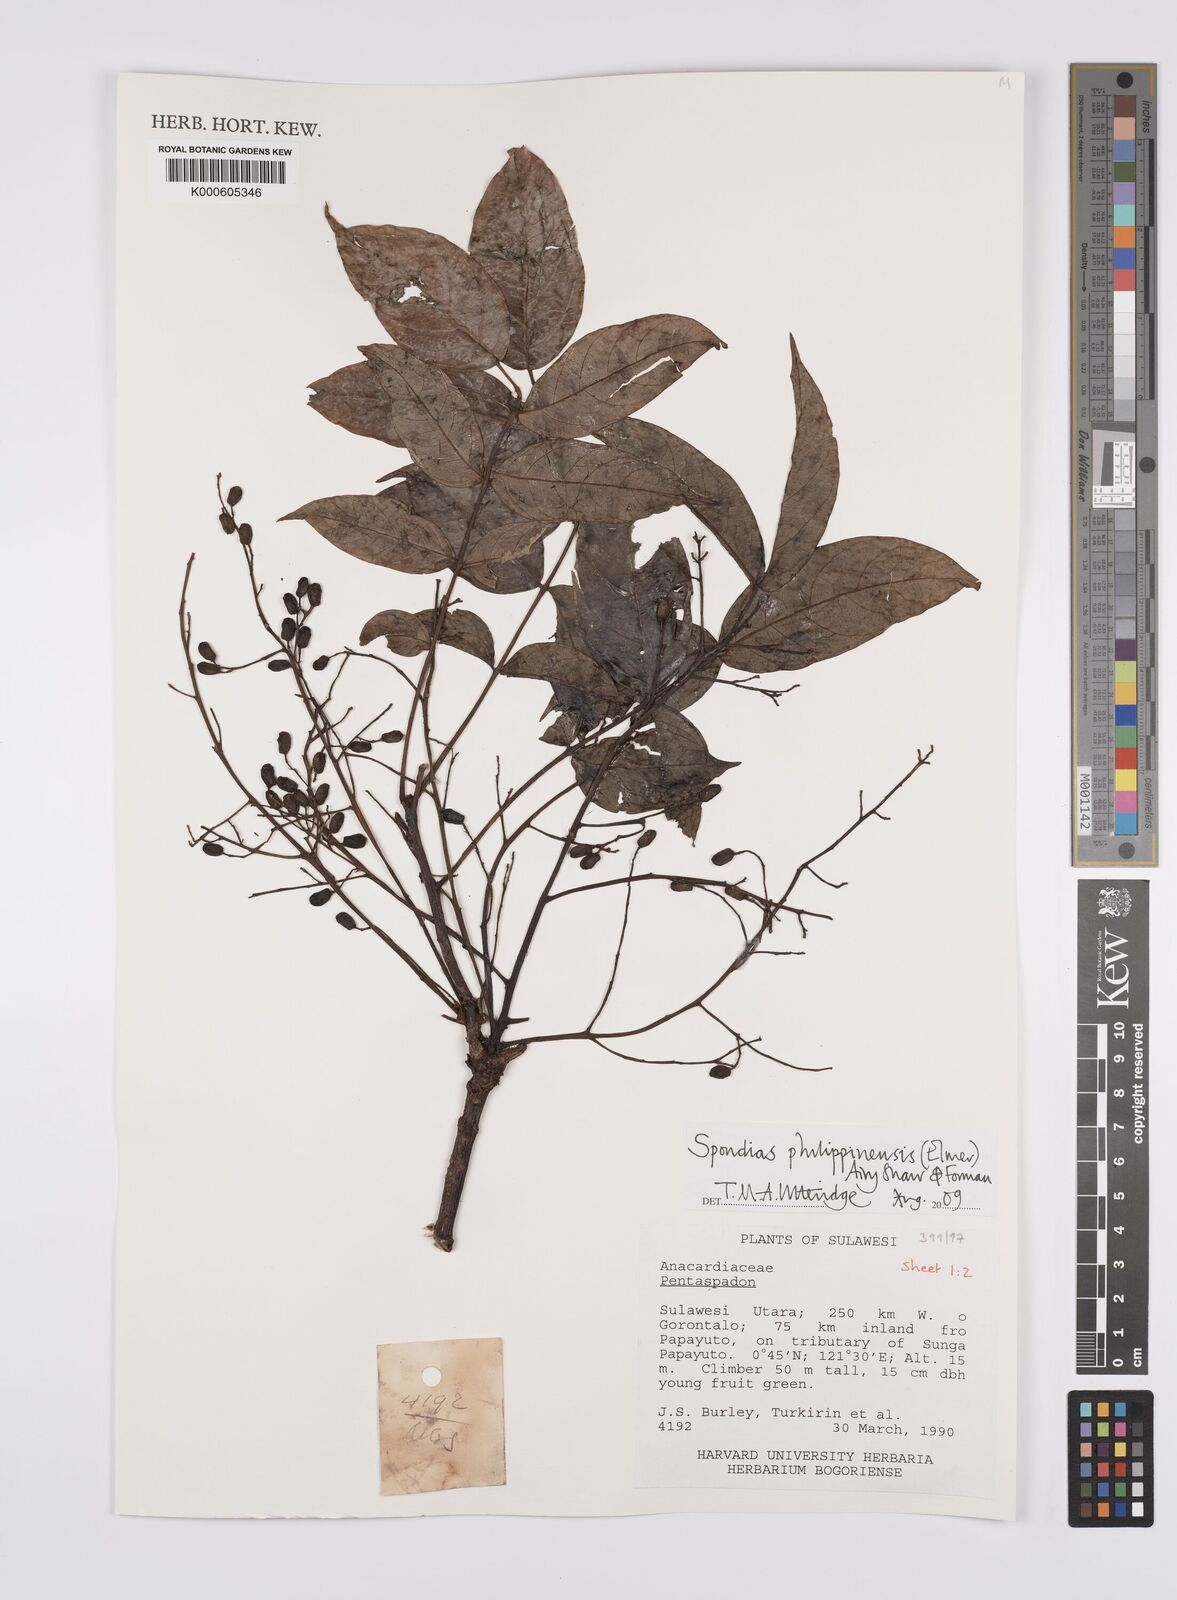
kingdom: Plantae
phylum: Tracheophyta
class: Magnoliopsida
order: Sapindales
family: Anacardiaceae
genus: Spondias
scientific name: Spondias philippinensis
